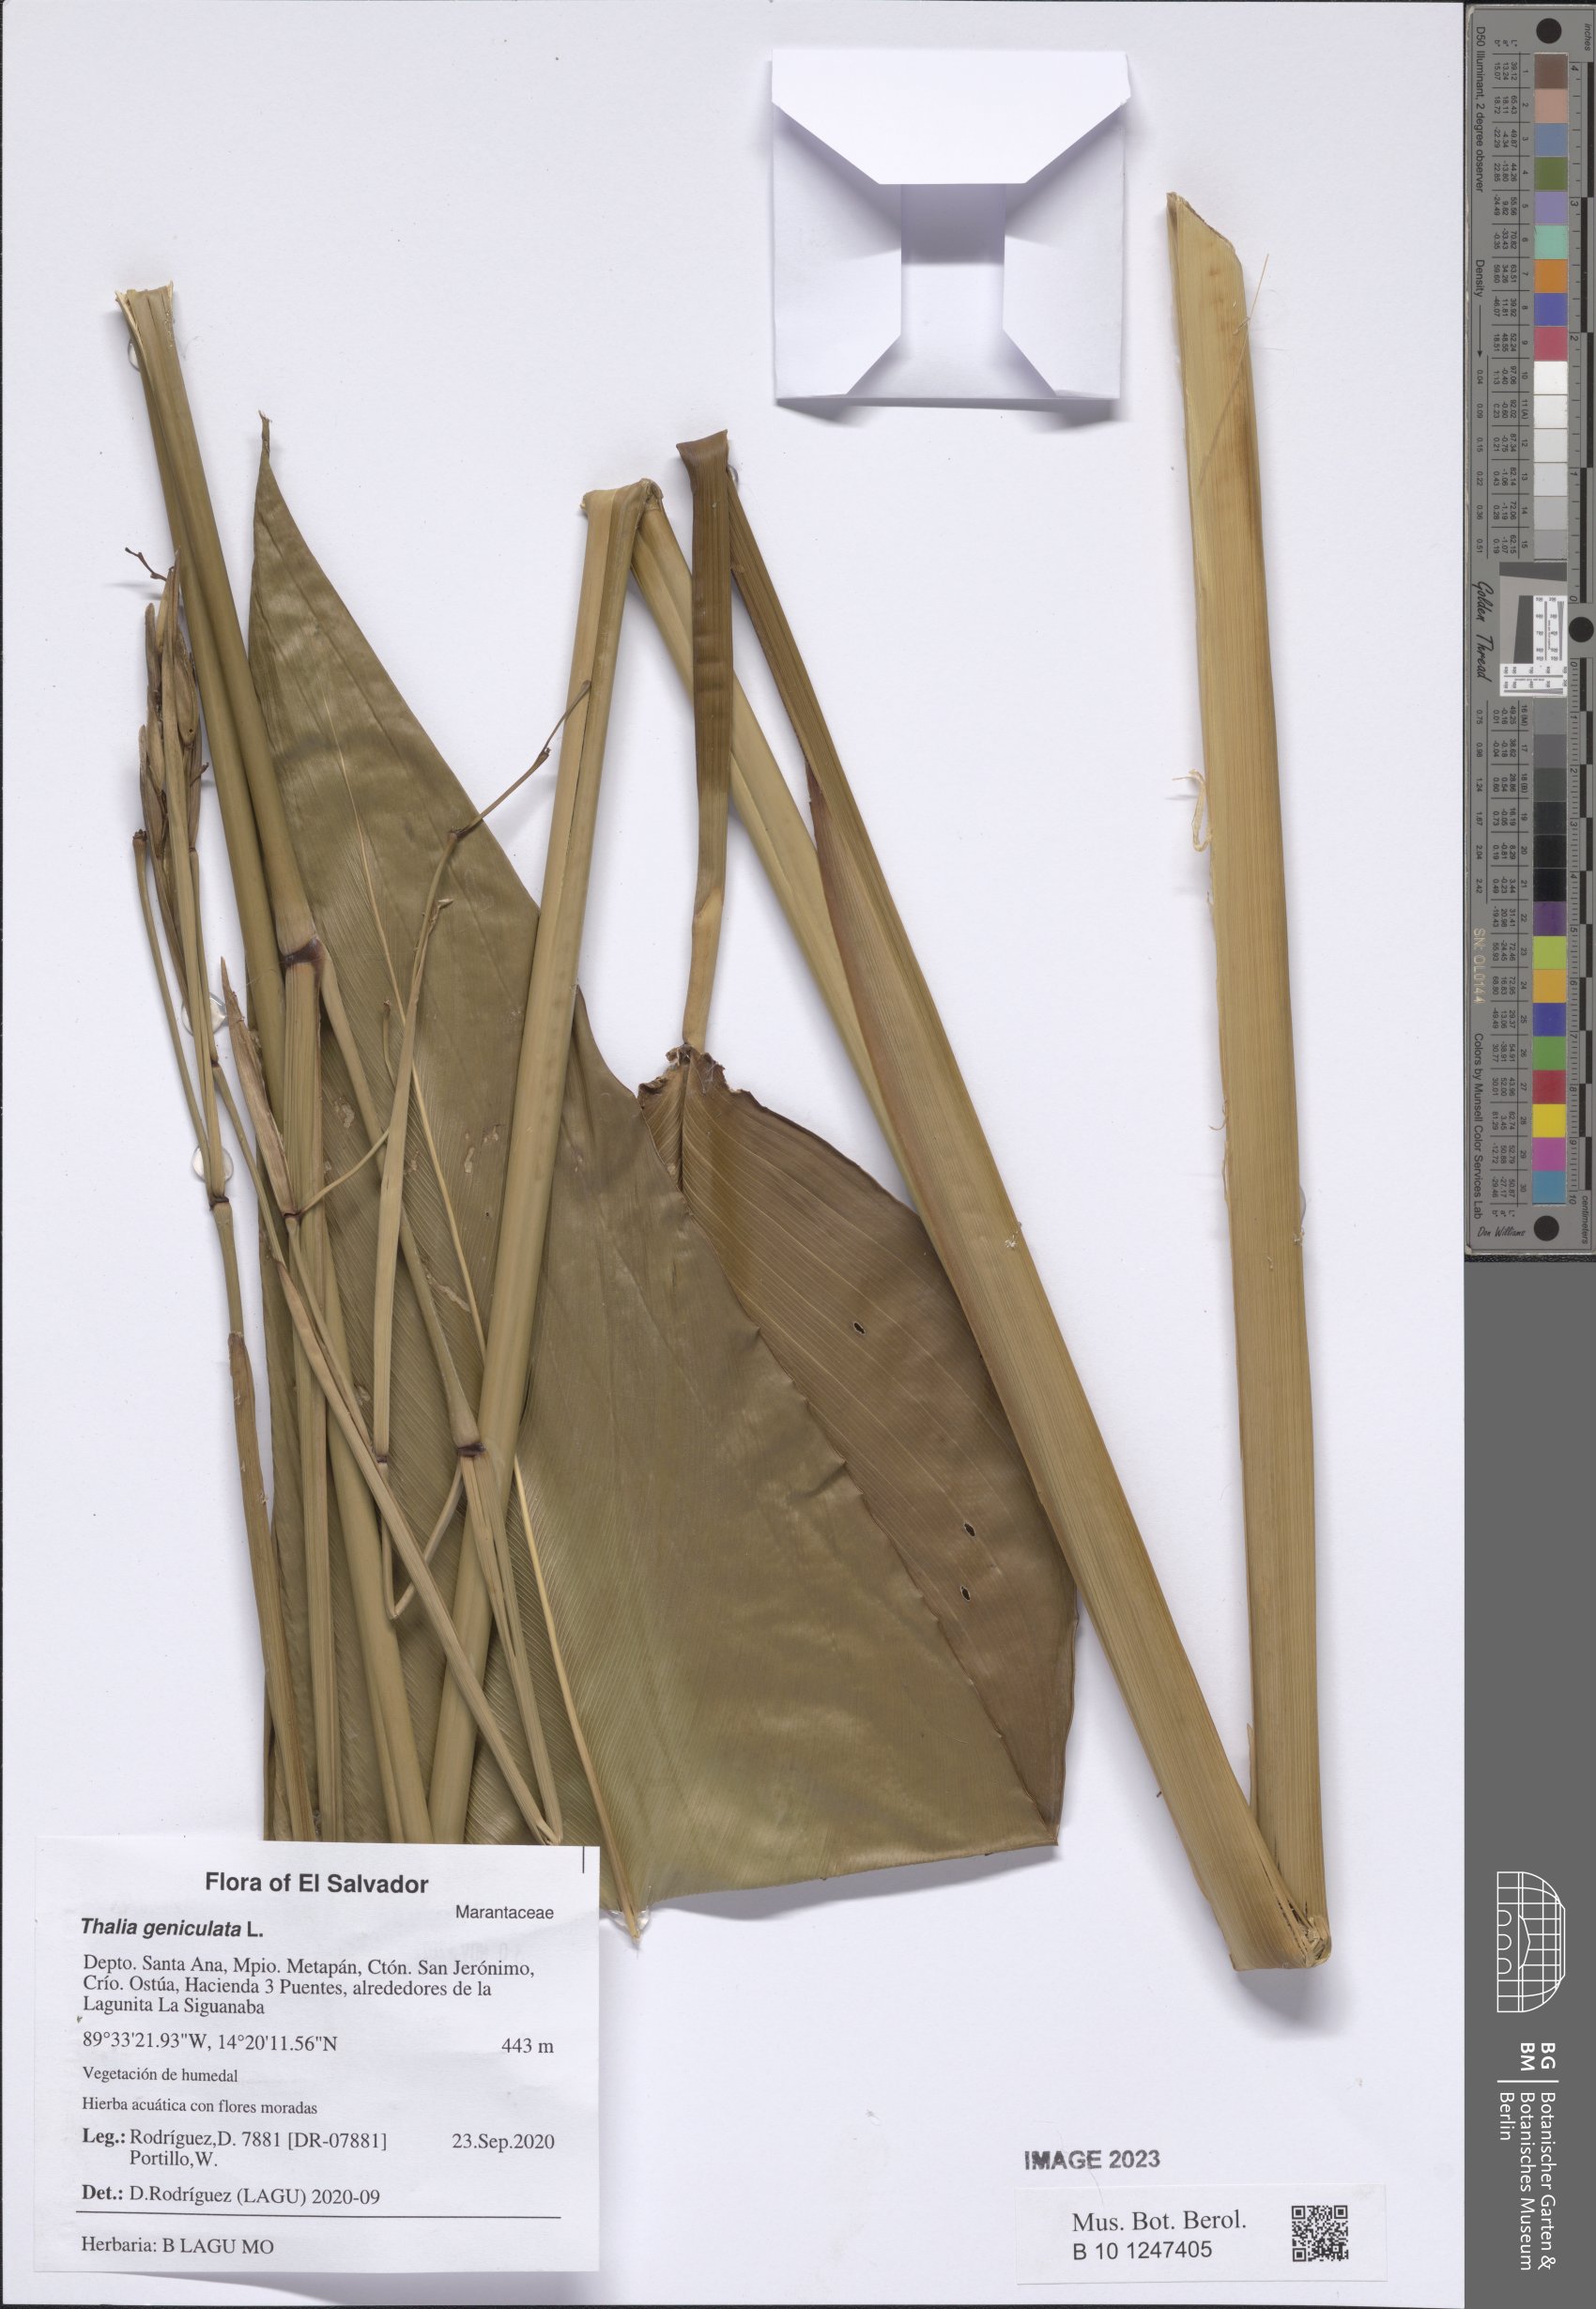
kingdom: Plantae
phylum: Tracheophyta
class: Liliopsida
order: Zingiberales
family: Marantaceae
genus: Thalia
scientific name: Thalia geniculata
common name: Arrowroot
